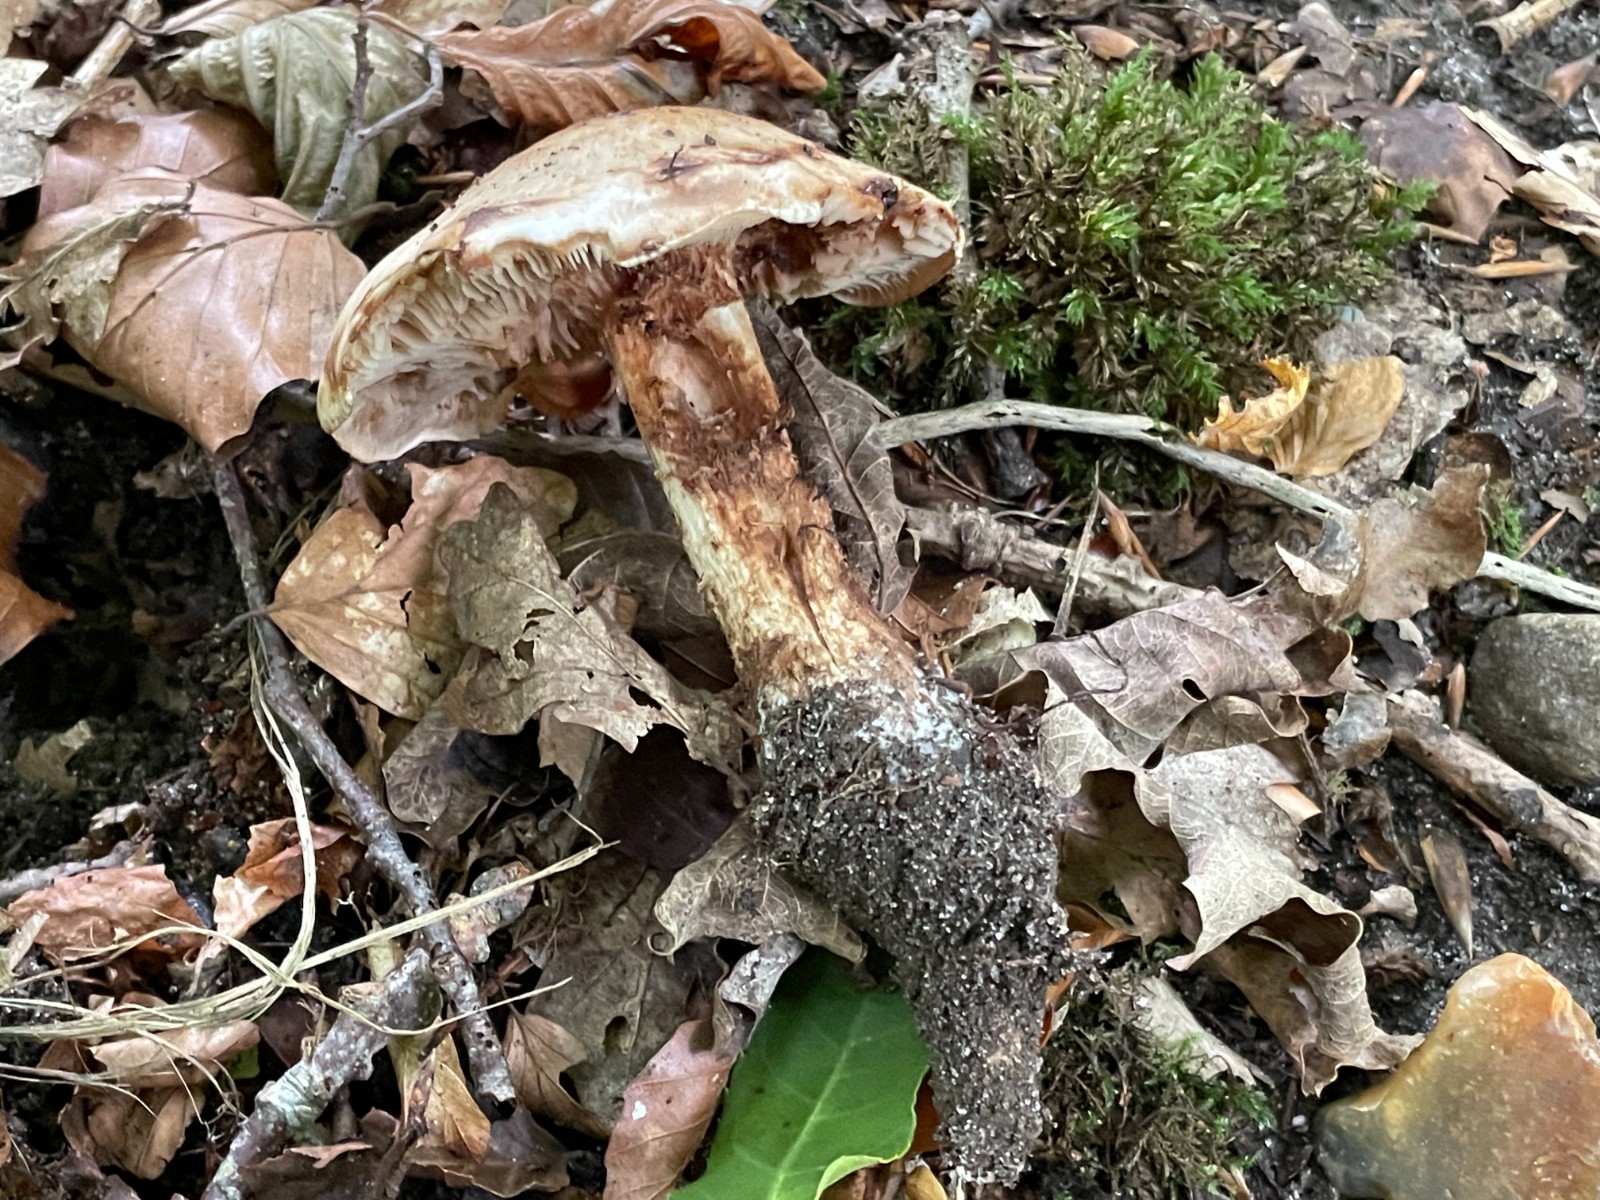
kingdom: Fungi
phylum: Basidiomycota
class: Agaricomycetes
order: Agaricales
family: Hymenogastraceae
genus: Hebeloma
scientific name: Hebeloma radicosum
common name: pælerods-tåreblad
